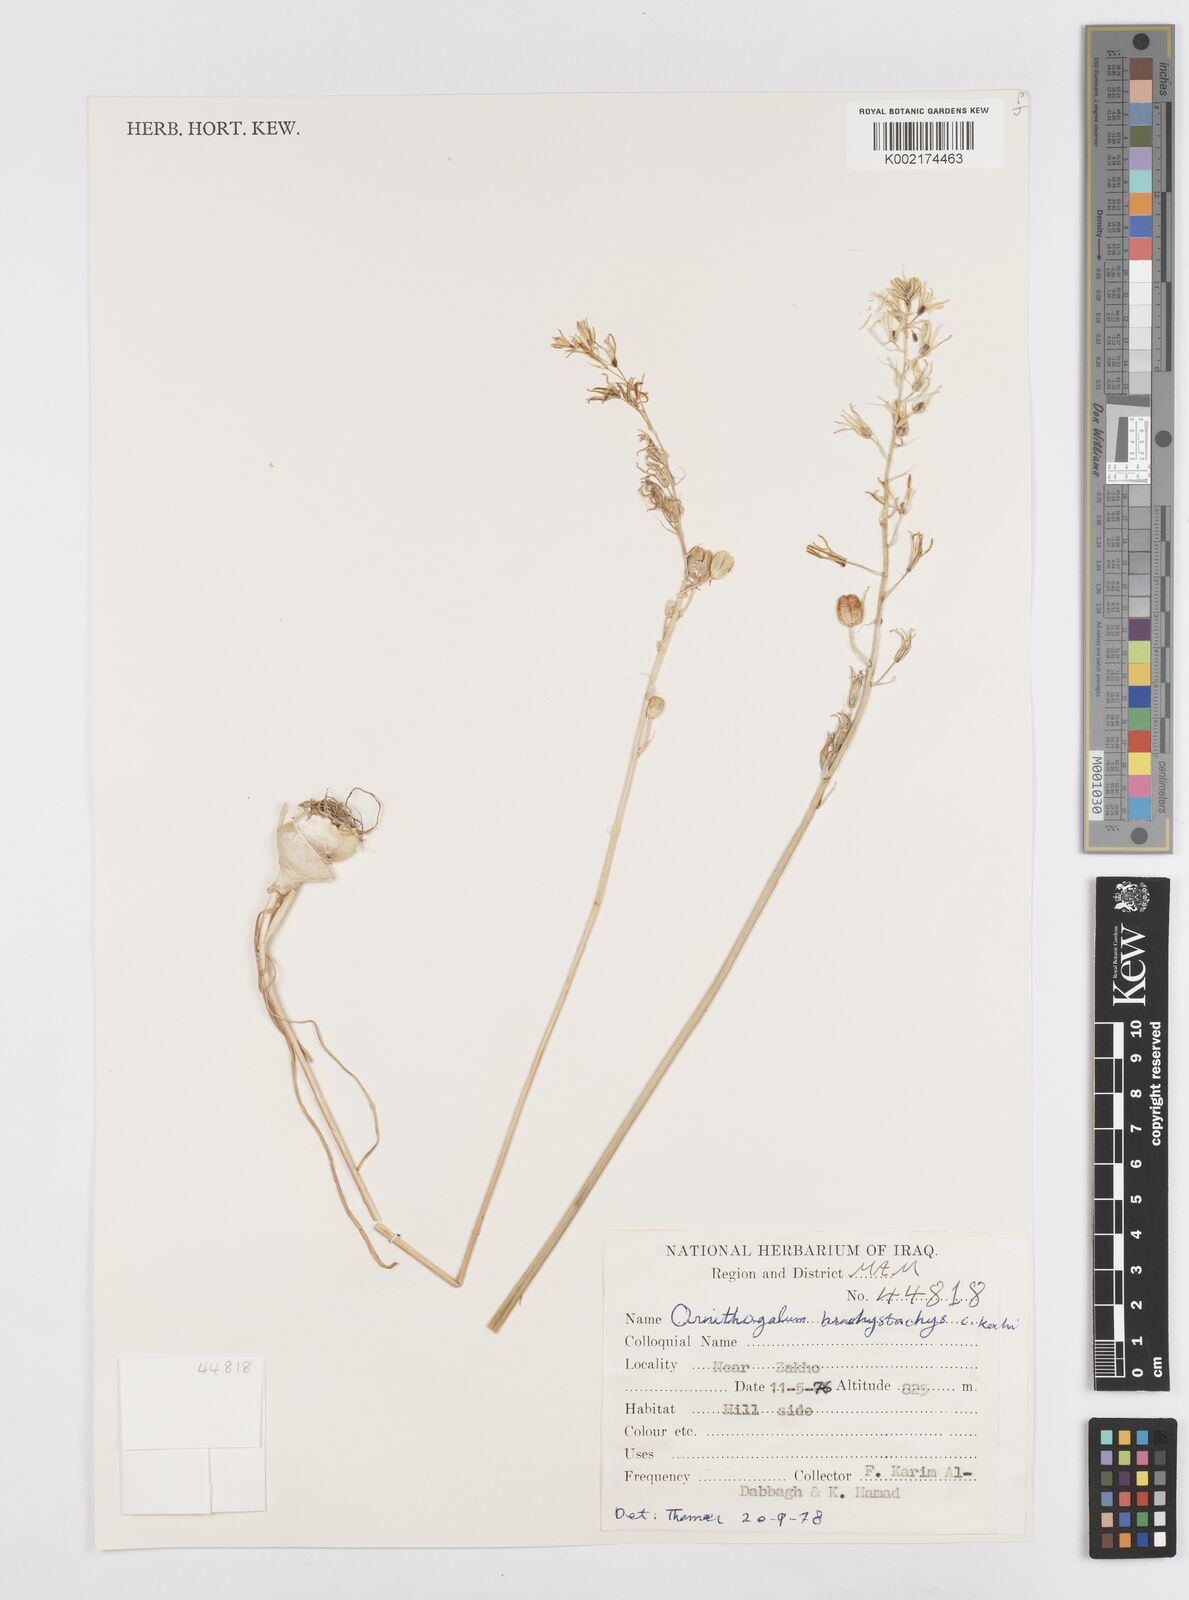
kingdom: Plantae
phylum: Tracheophyta
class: Liliopsida
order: Asparagales
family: Asparagaceae
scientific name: Asparagaceae
